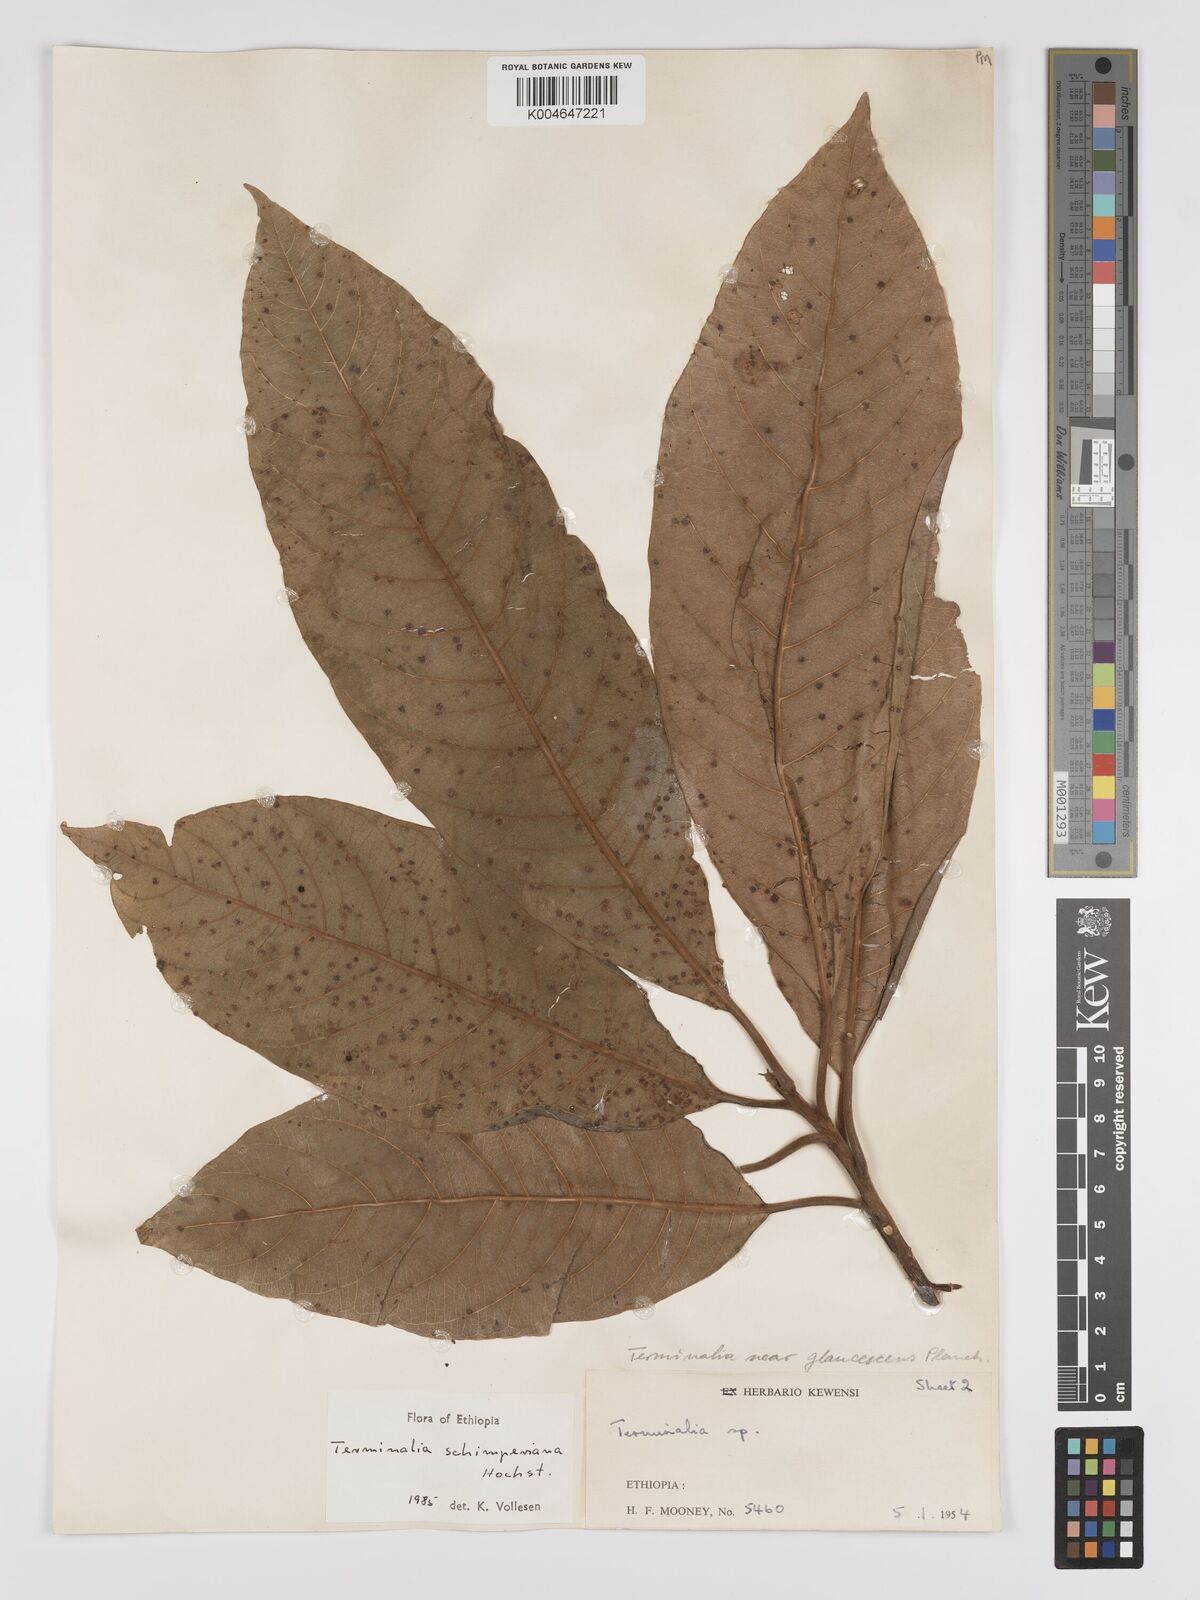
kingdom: Plantae
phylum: Tracheophyta
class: Magnoliopsida
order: Myrtales
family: Combretaceae
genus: Terminalia
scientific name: Terminalia schimperiana
